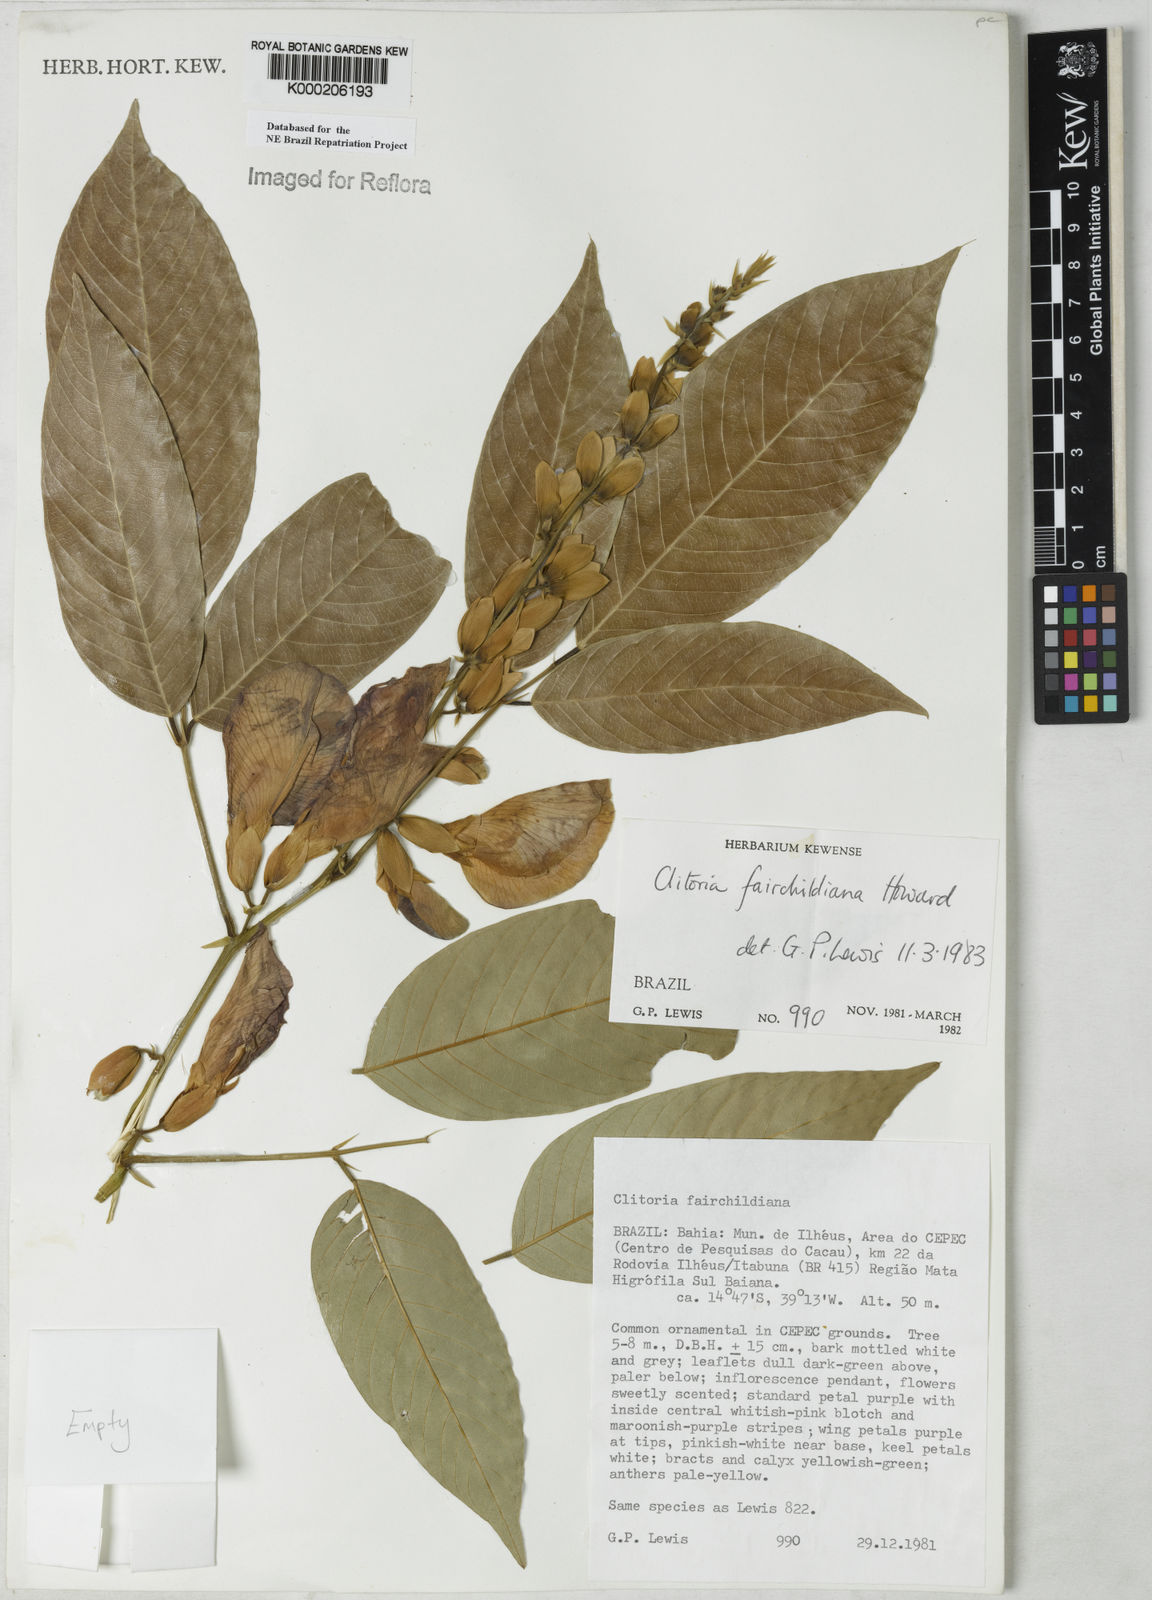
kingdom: Plantae
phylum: Tracheophyta
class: Magnoliopsida
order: Fabales
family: Fabaceae
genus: Clitoria
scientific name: Clitoria fairchildiana
